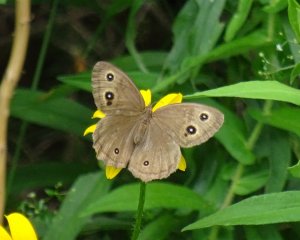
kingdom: Animalia
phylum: Arthropoda
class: Insecta
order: Lepidoptera
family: Nymphalidae
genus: Cercyonis
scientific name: Cercyonis pegala
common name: Common Wood-Nymph
